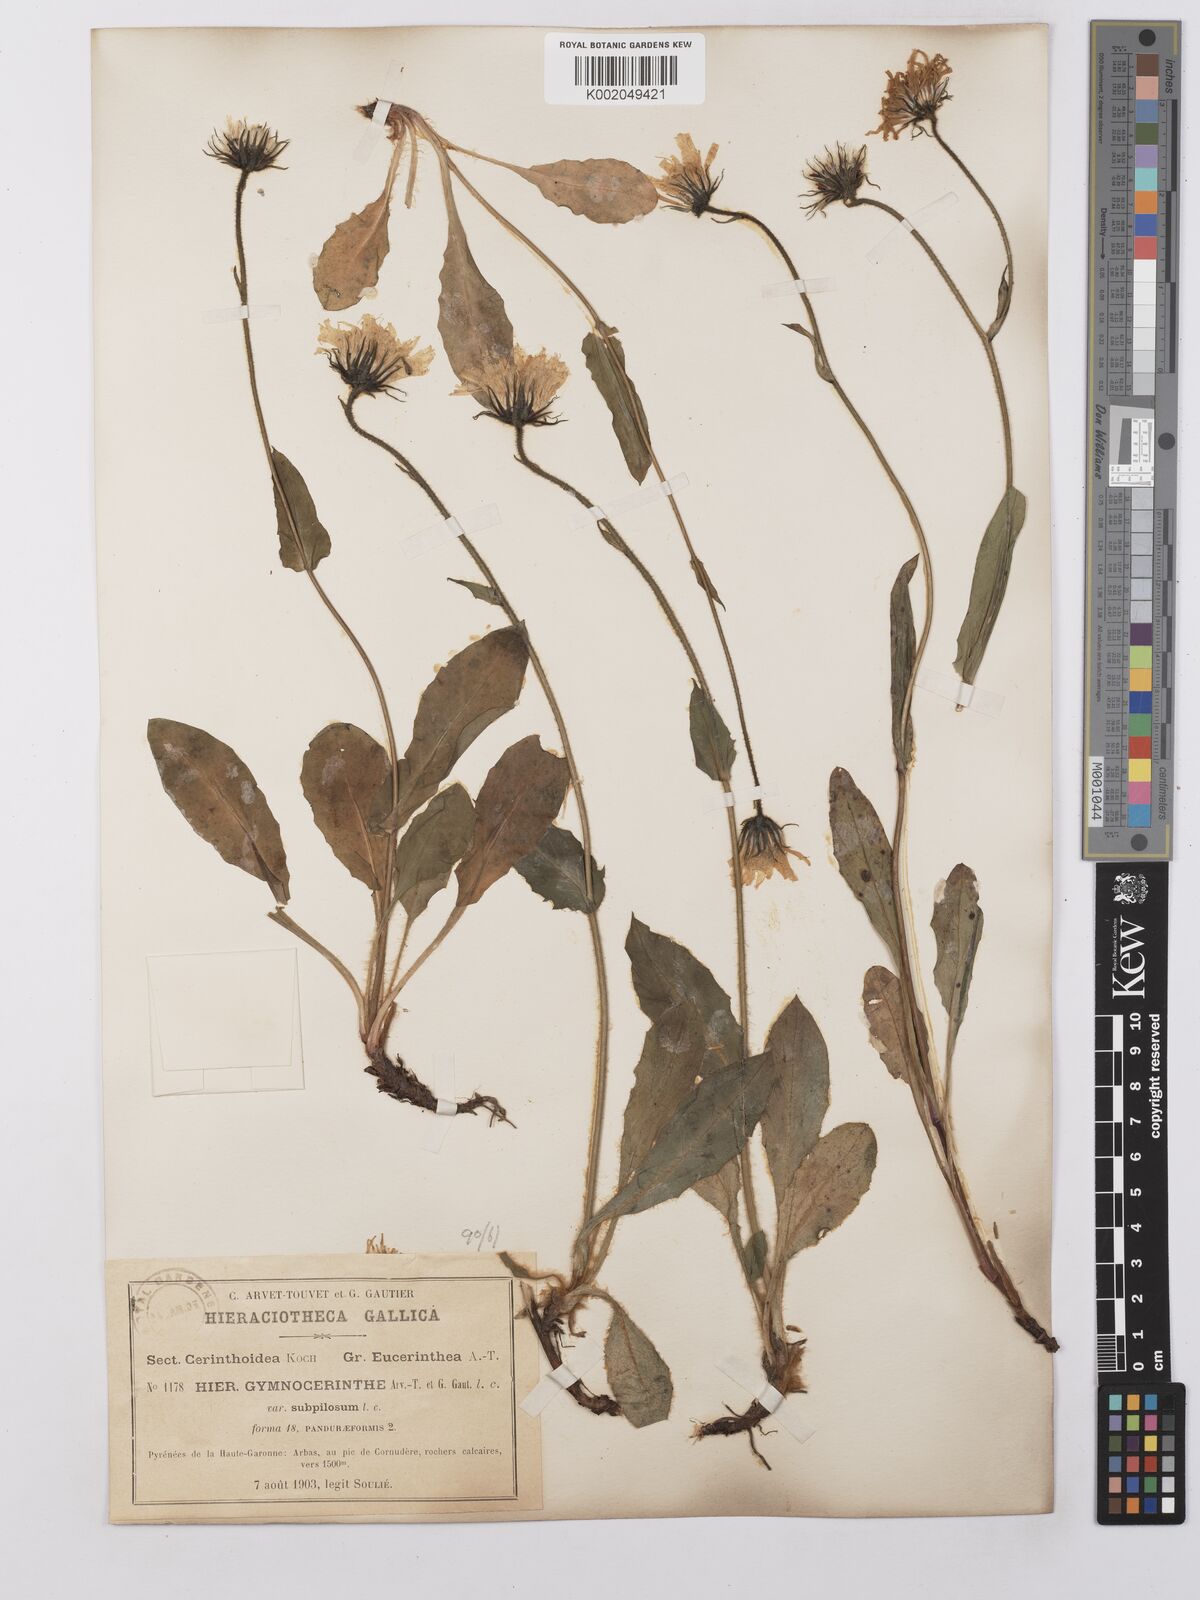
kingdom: Plantae
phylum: Tracheophyta
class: Magnoliopsida
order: Asterales
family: Asteraceae
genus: Hieracium
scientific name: Hieracium cerinthoides
